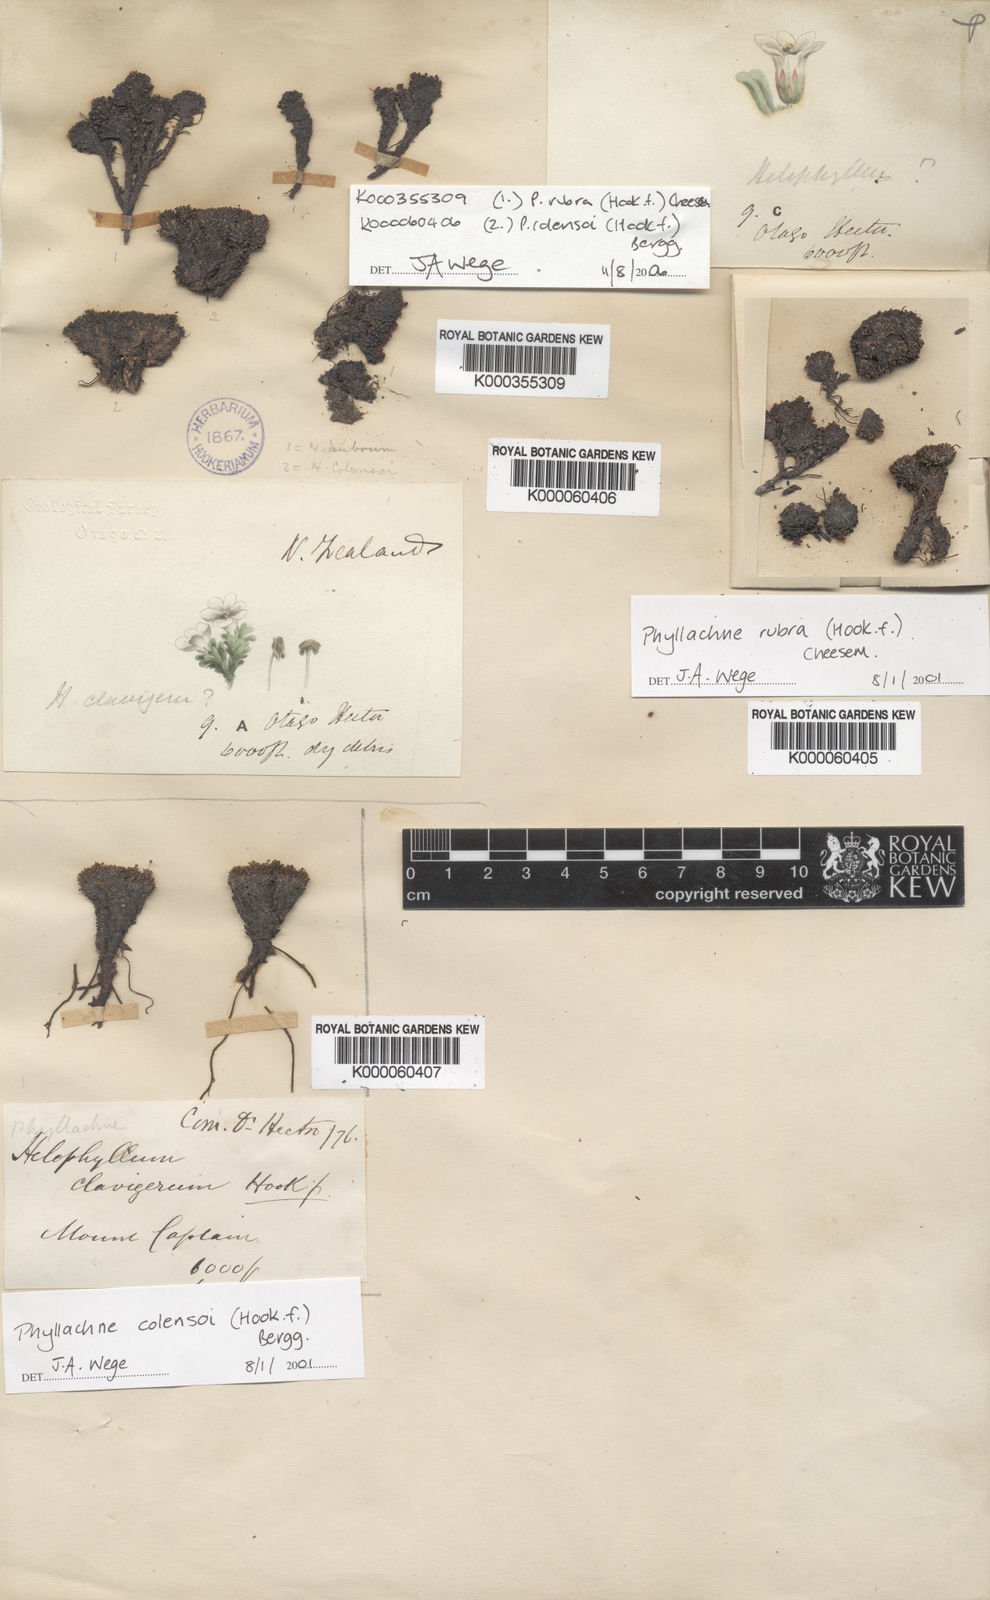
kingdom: Plantae
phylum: Tracheophyta
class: Magnoliopsida
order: Asterales
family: Stylidiaceae
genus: Phyllachne
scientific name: Phyllachne rubra
